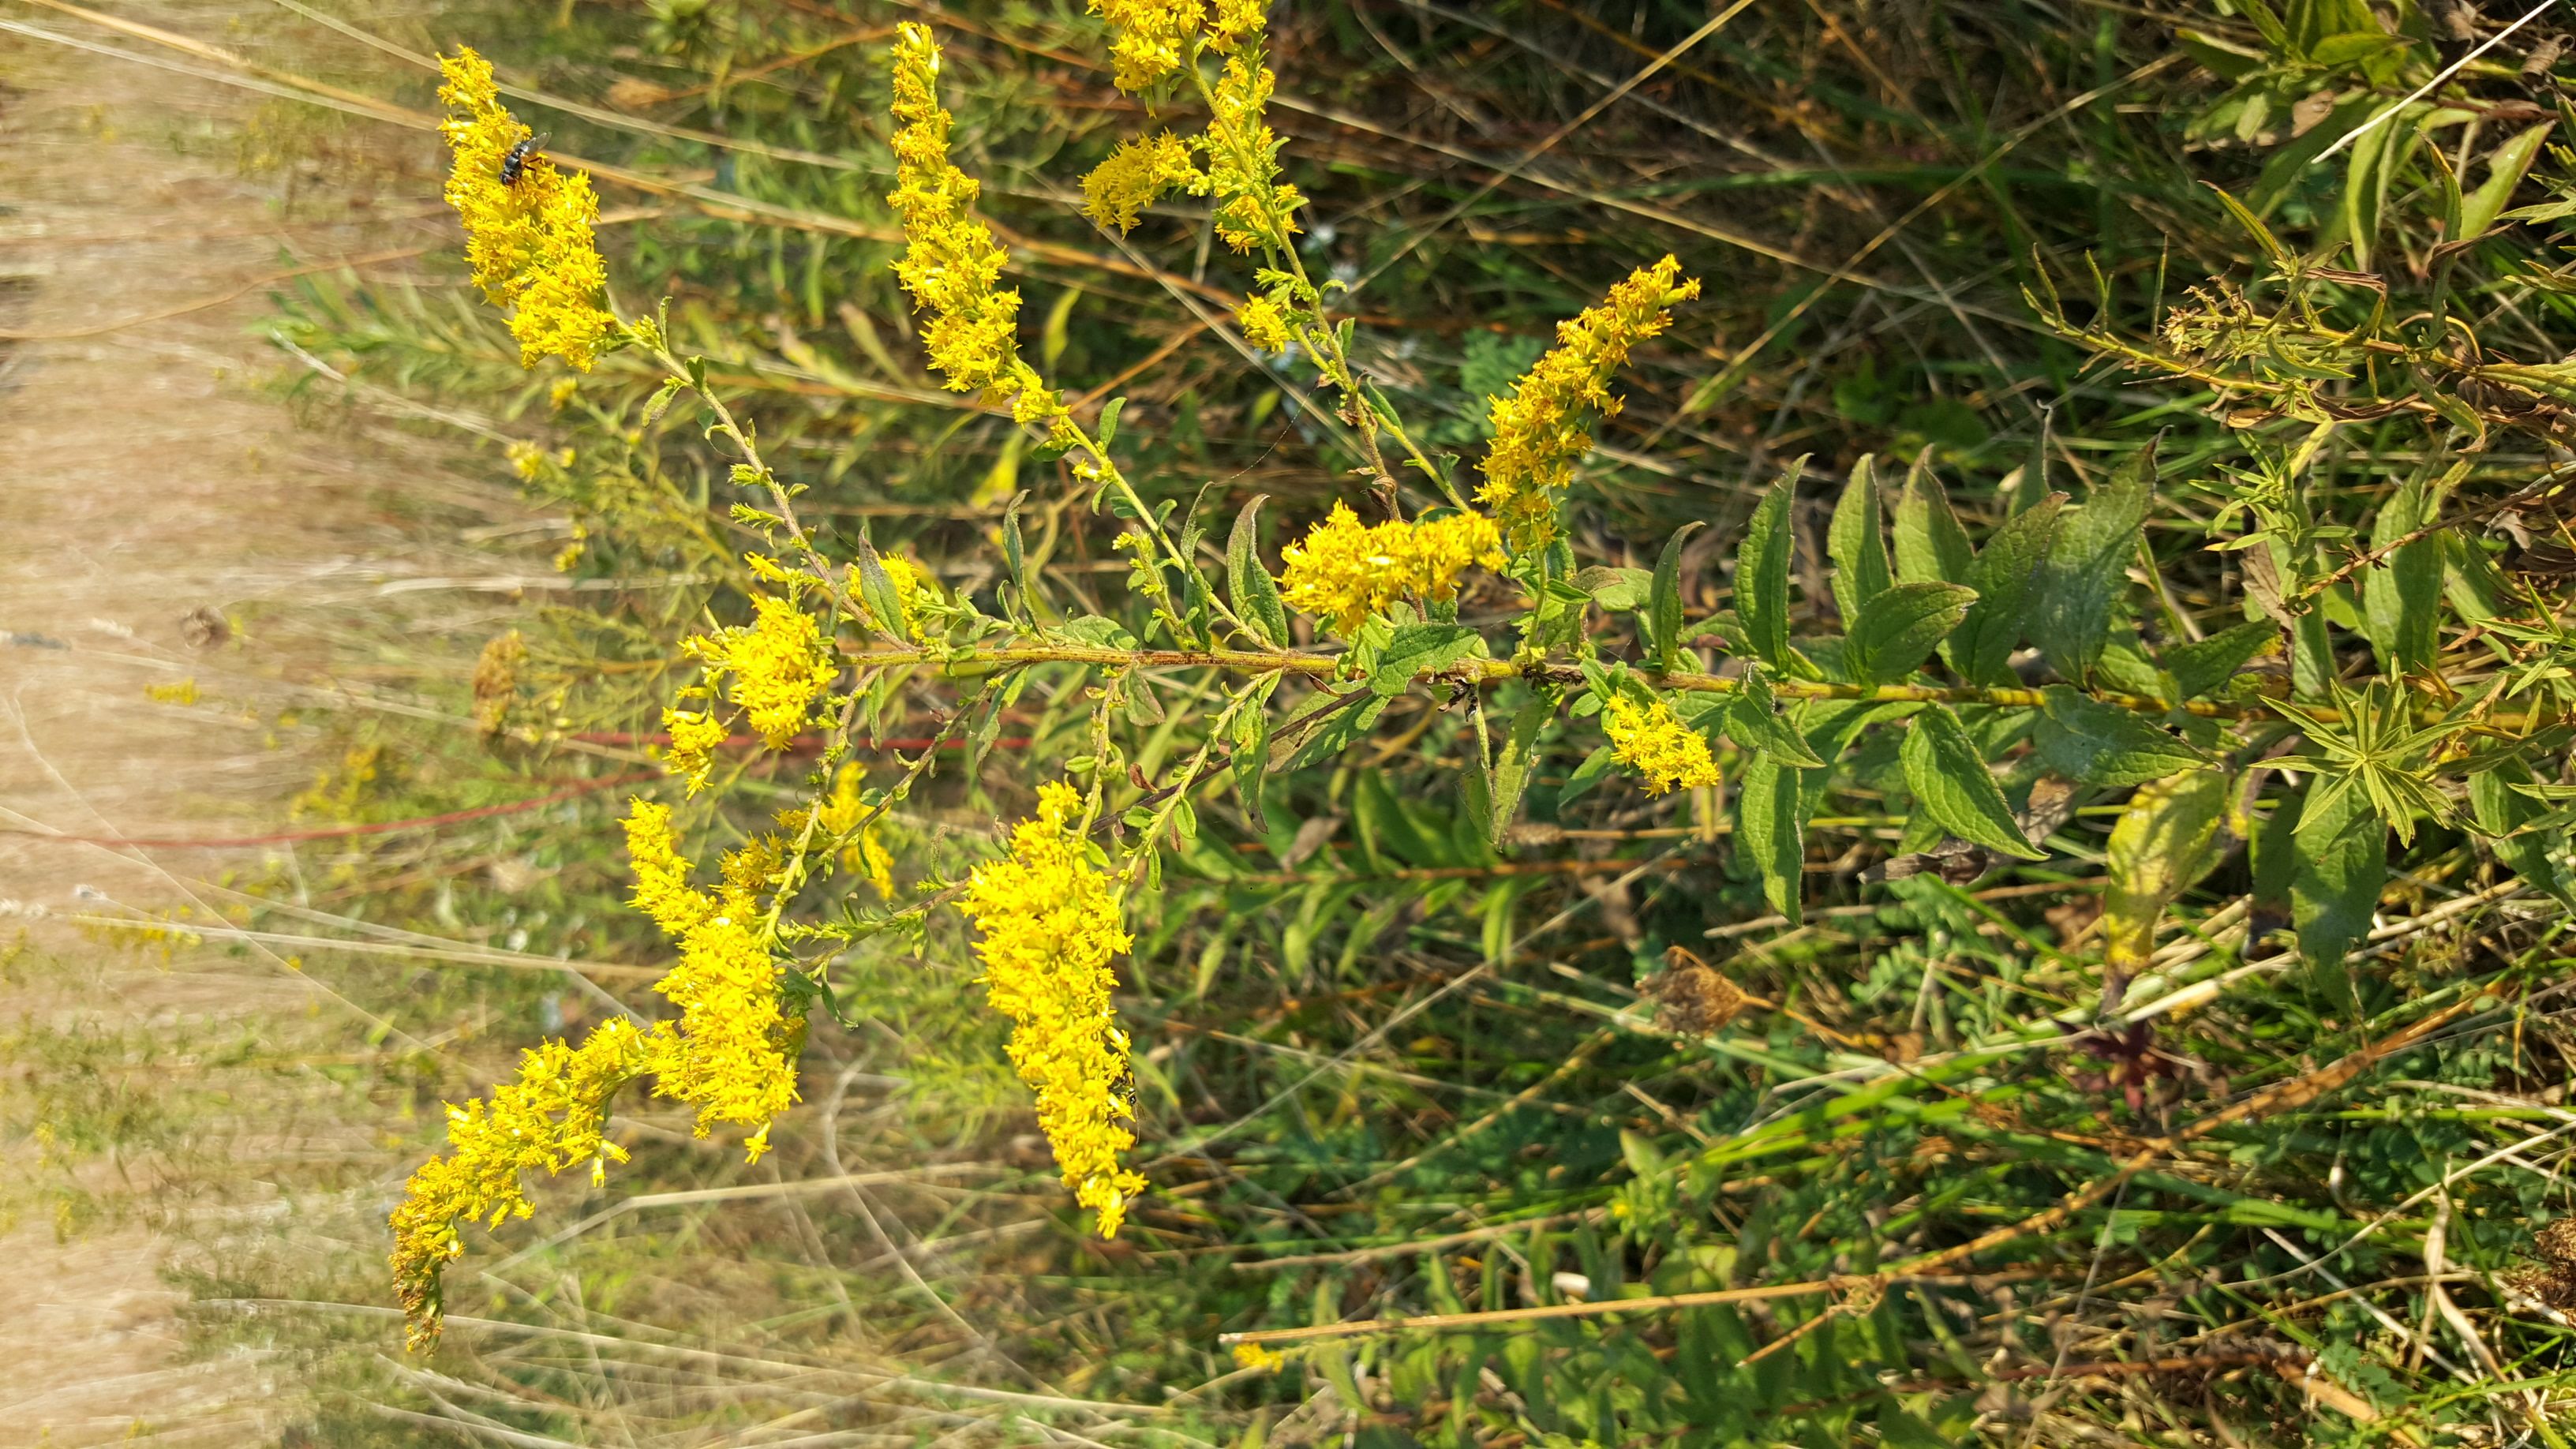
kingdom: Plantae
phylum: Tracheophyta
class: Magnoliopsida
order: Asterales
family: Asteraceae
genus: Solidago
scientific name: Solidago altissima
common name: Late Goldenrod
